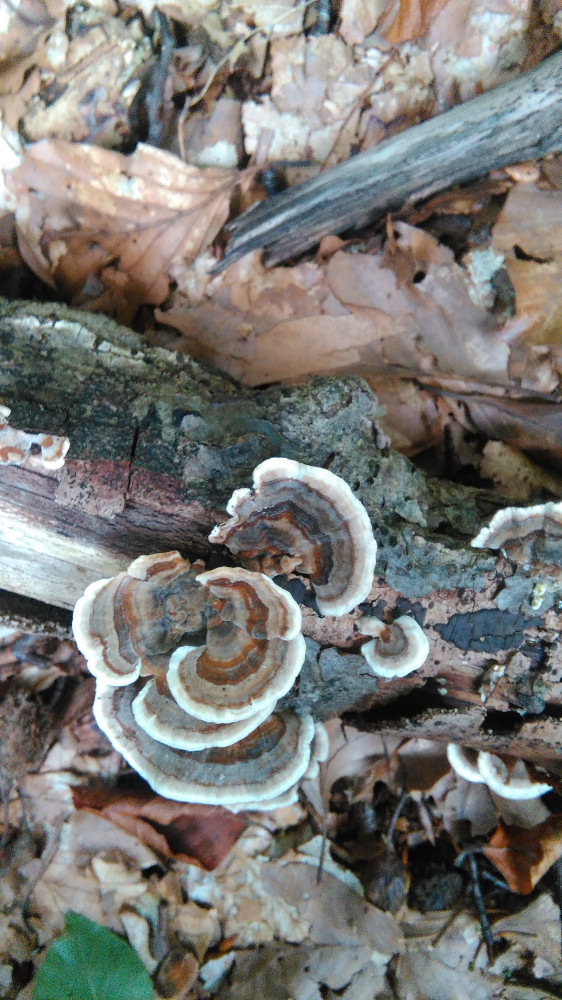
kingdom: Fungi
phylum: Basidiomycota
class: Agaricomycetes
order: Polyporales
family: Polyporaceae
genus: Trametes
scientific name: Trametes versicolor
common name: broget læderporesvamp
